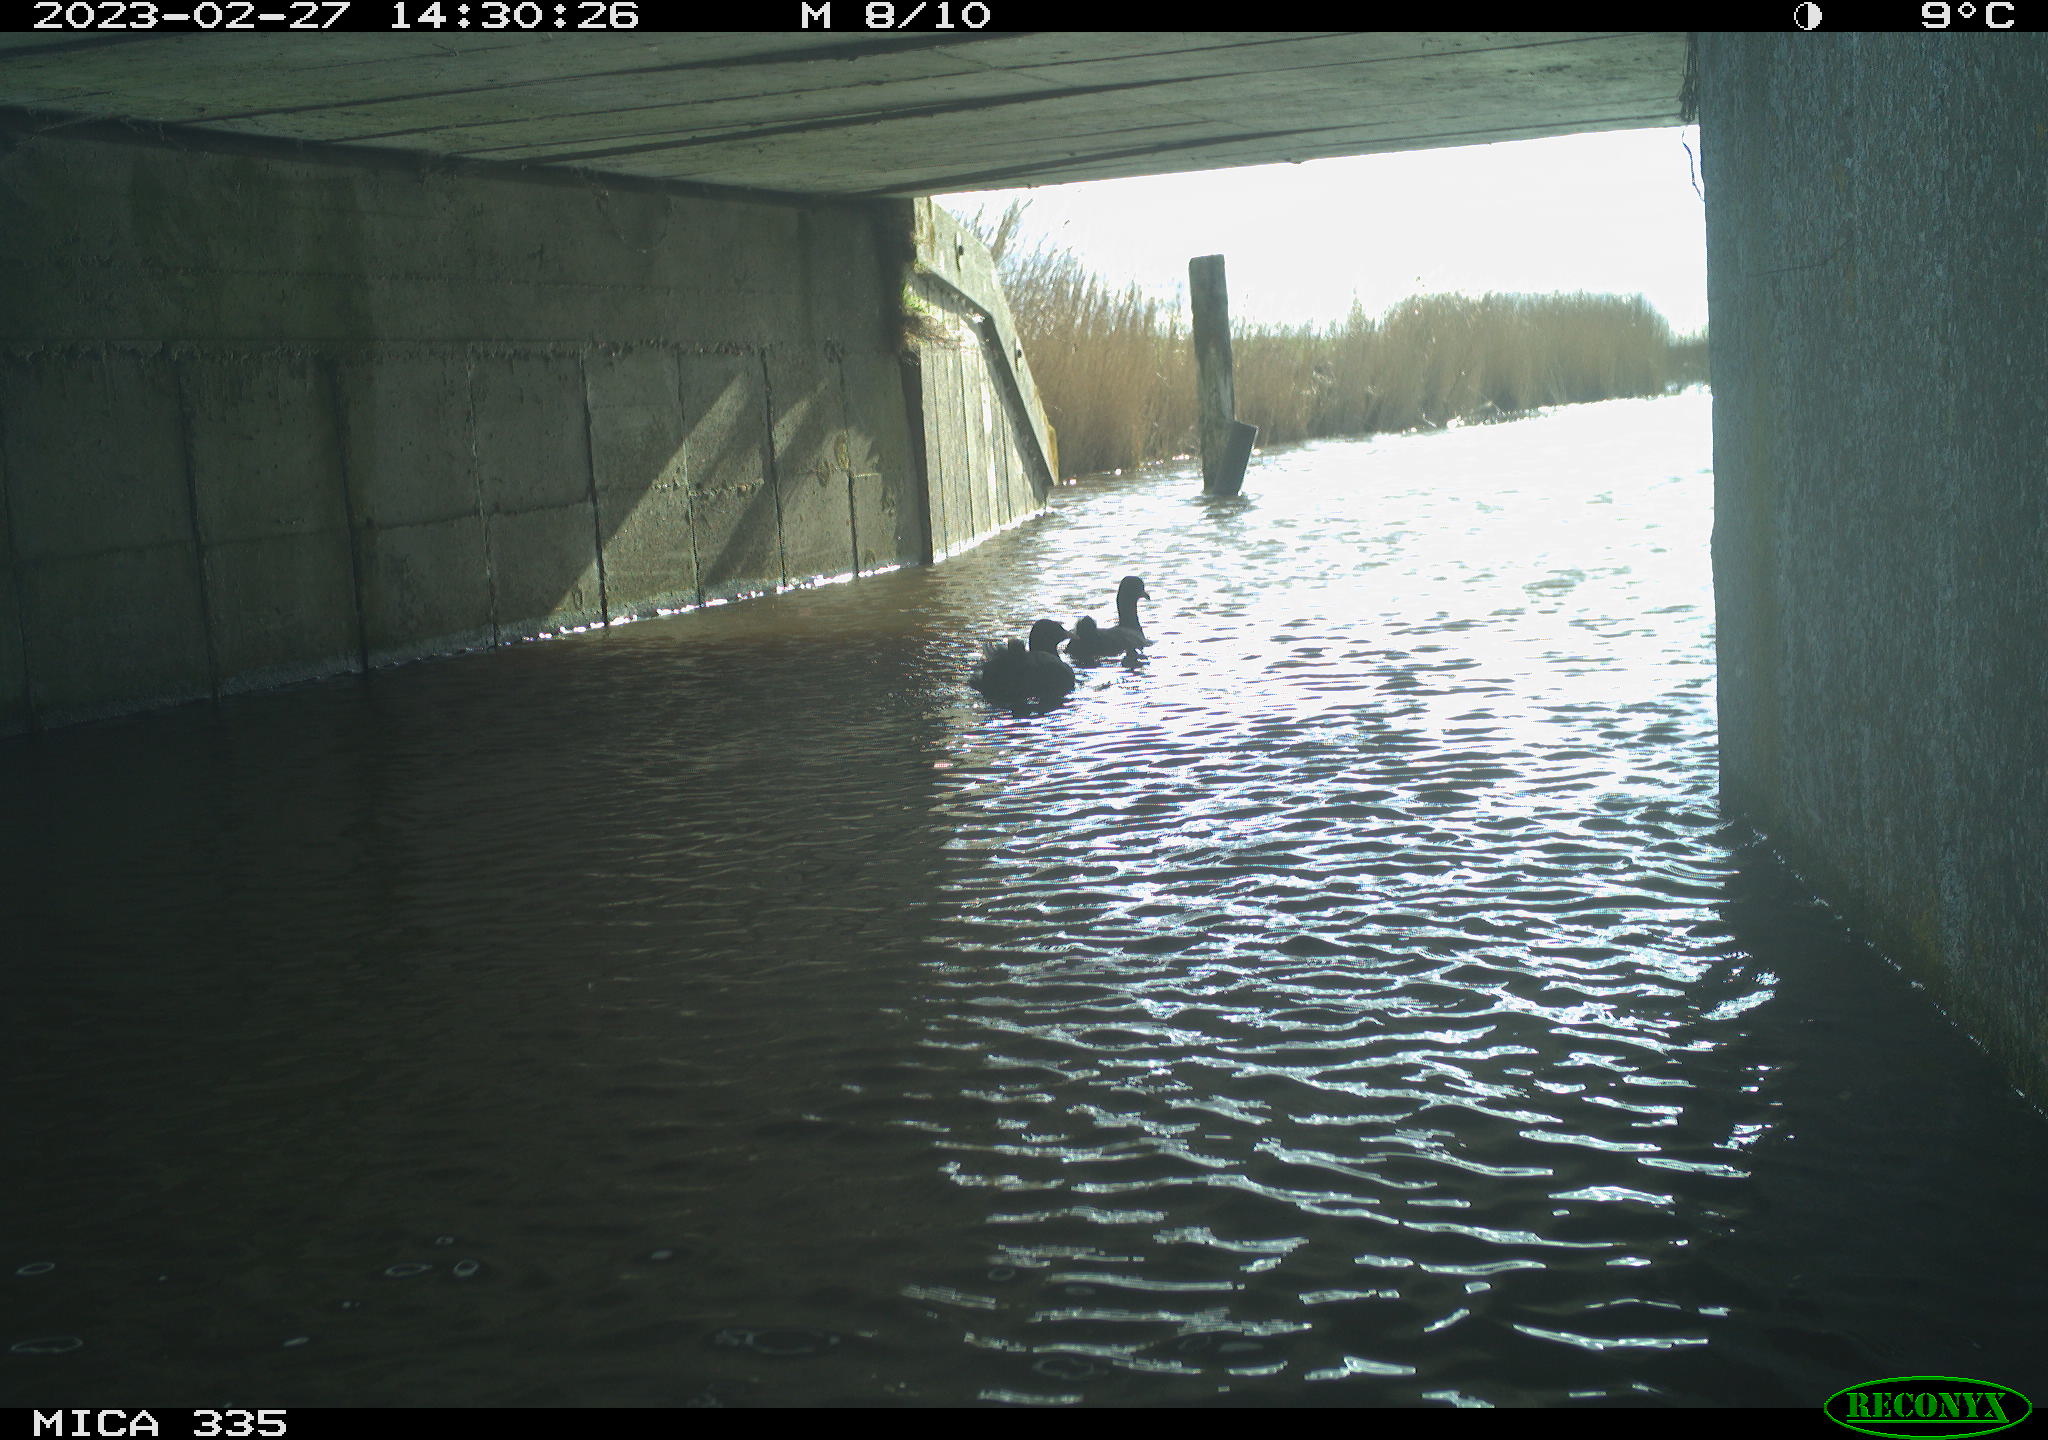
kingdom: Animalia
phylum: Chordata
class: Aves
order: Gruiformes
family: Rallidae
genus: Fulica
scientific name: Fulica atra
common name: Eurasian coot
